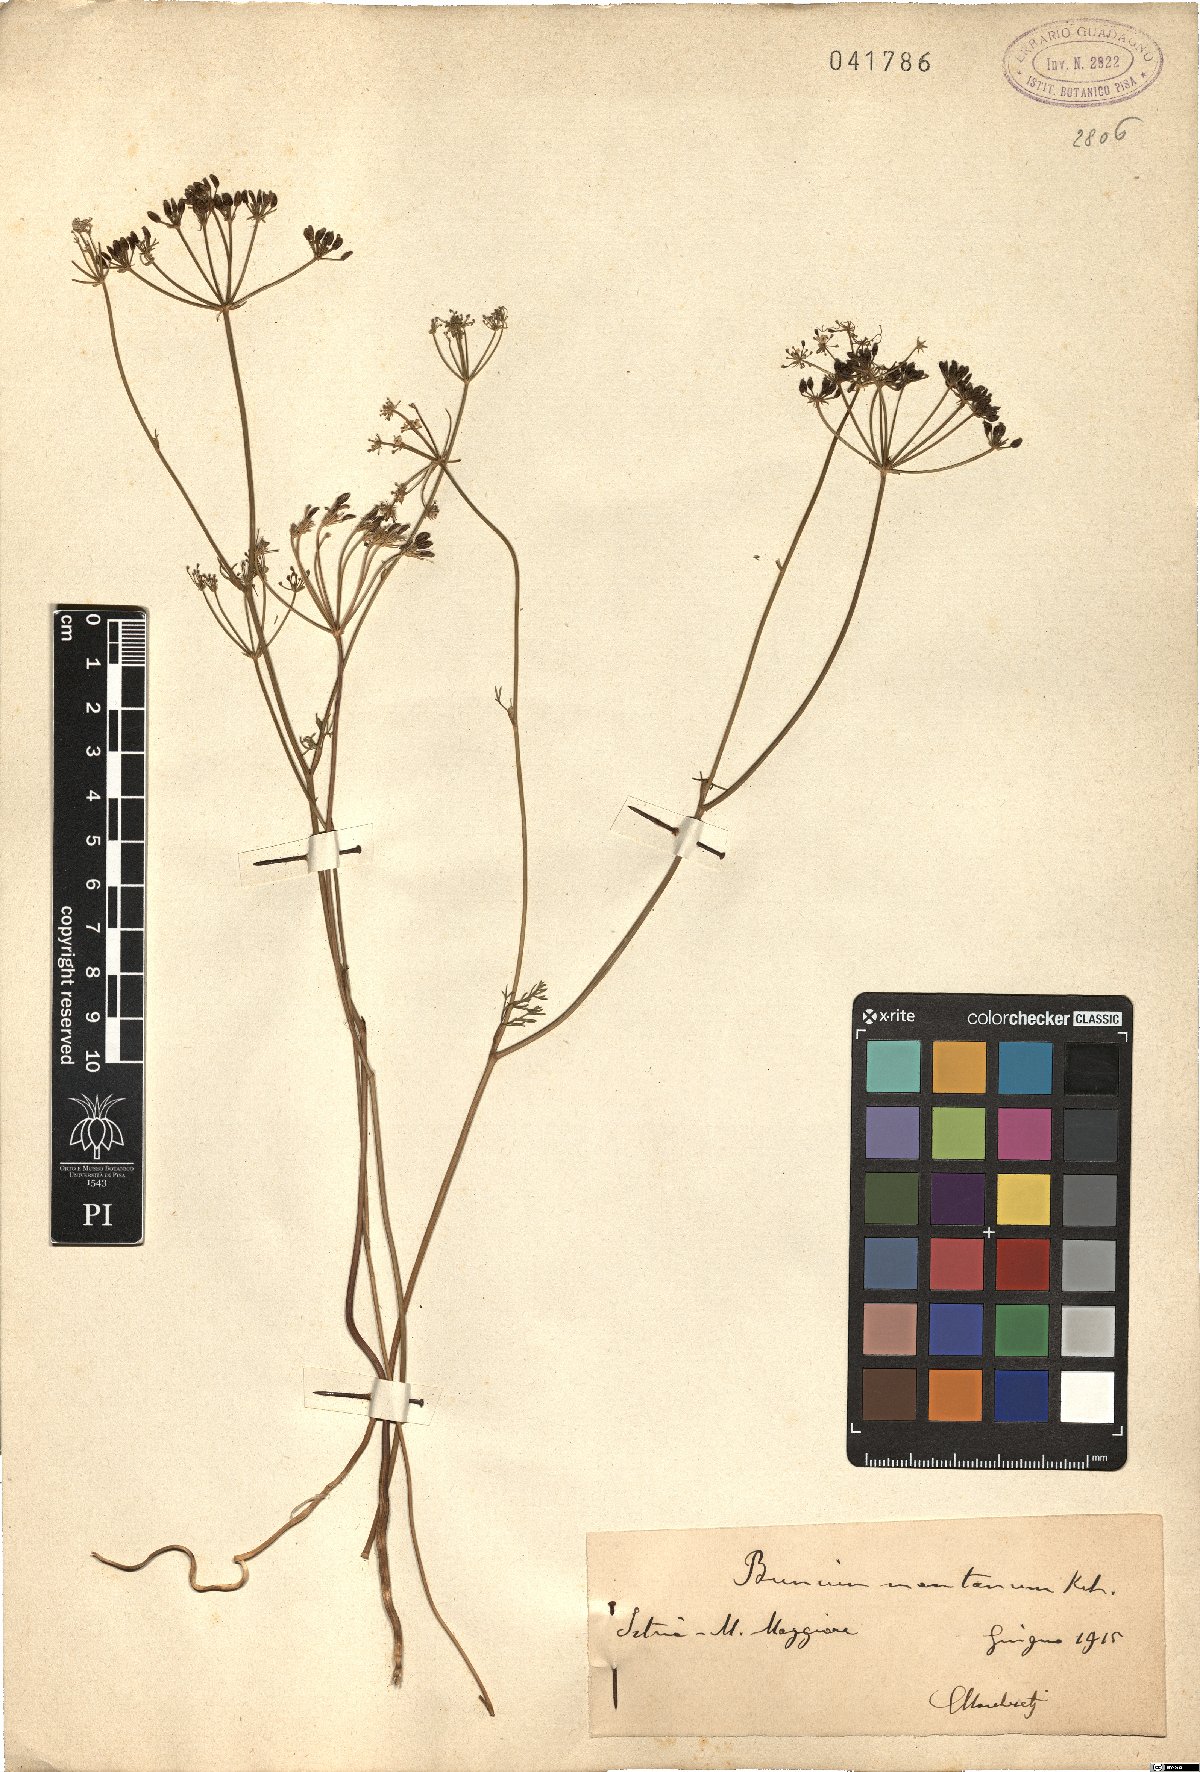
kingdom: Plantae
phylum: Tracheophyta
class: Magnoliopsida
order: Apiales
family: Apiaceae
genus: Bunium
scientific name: Bunium alpinum
